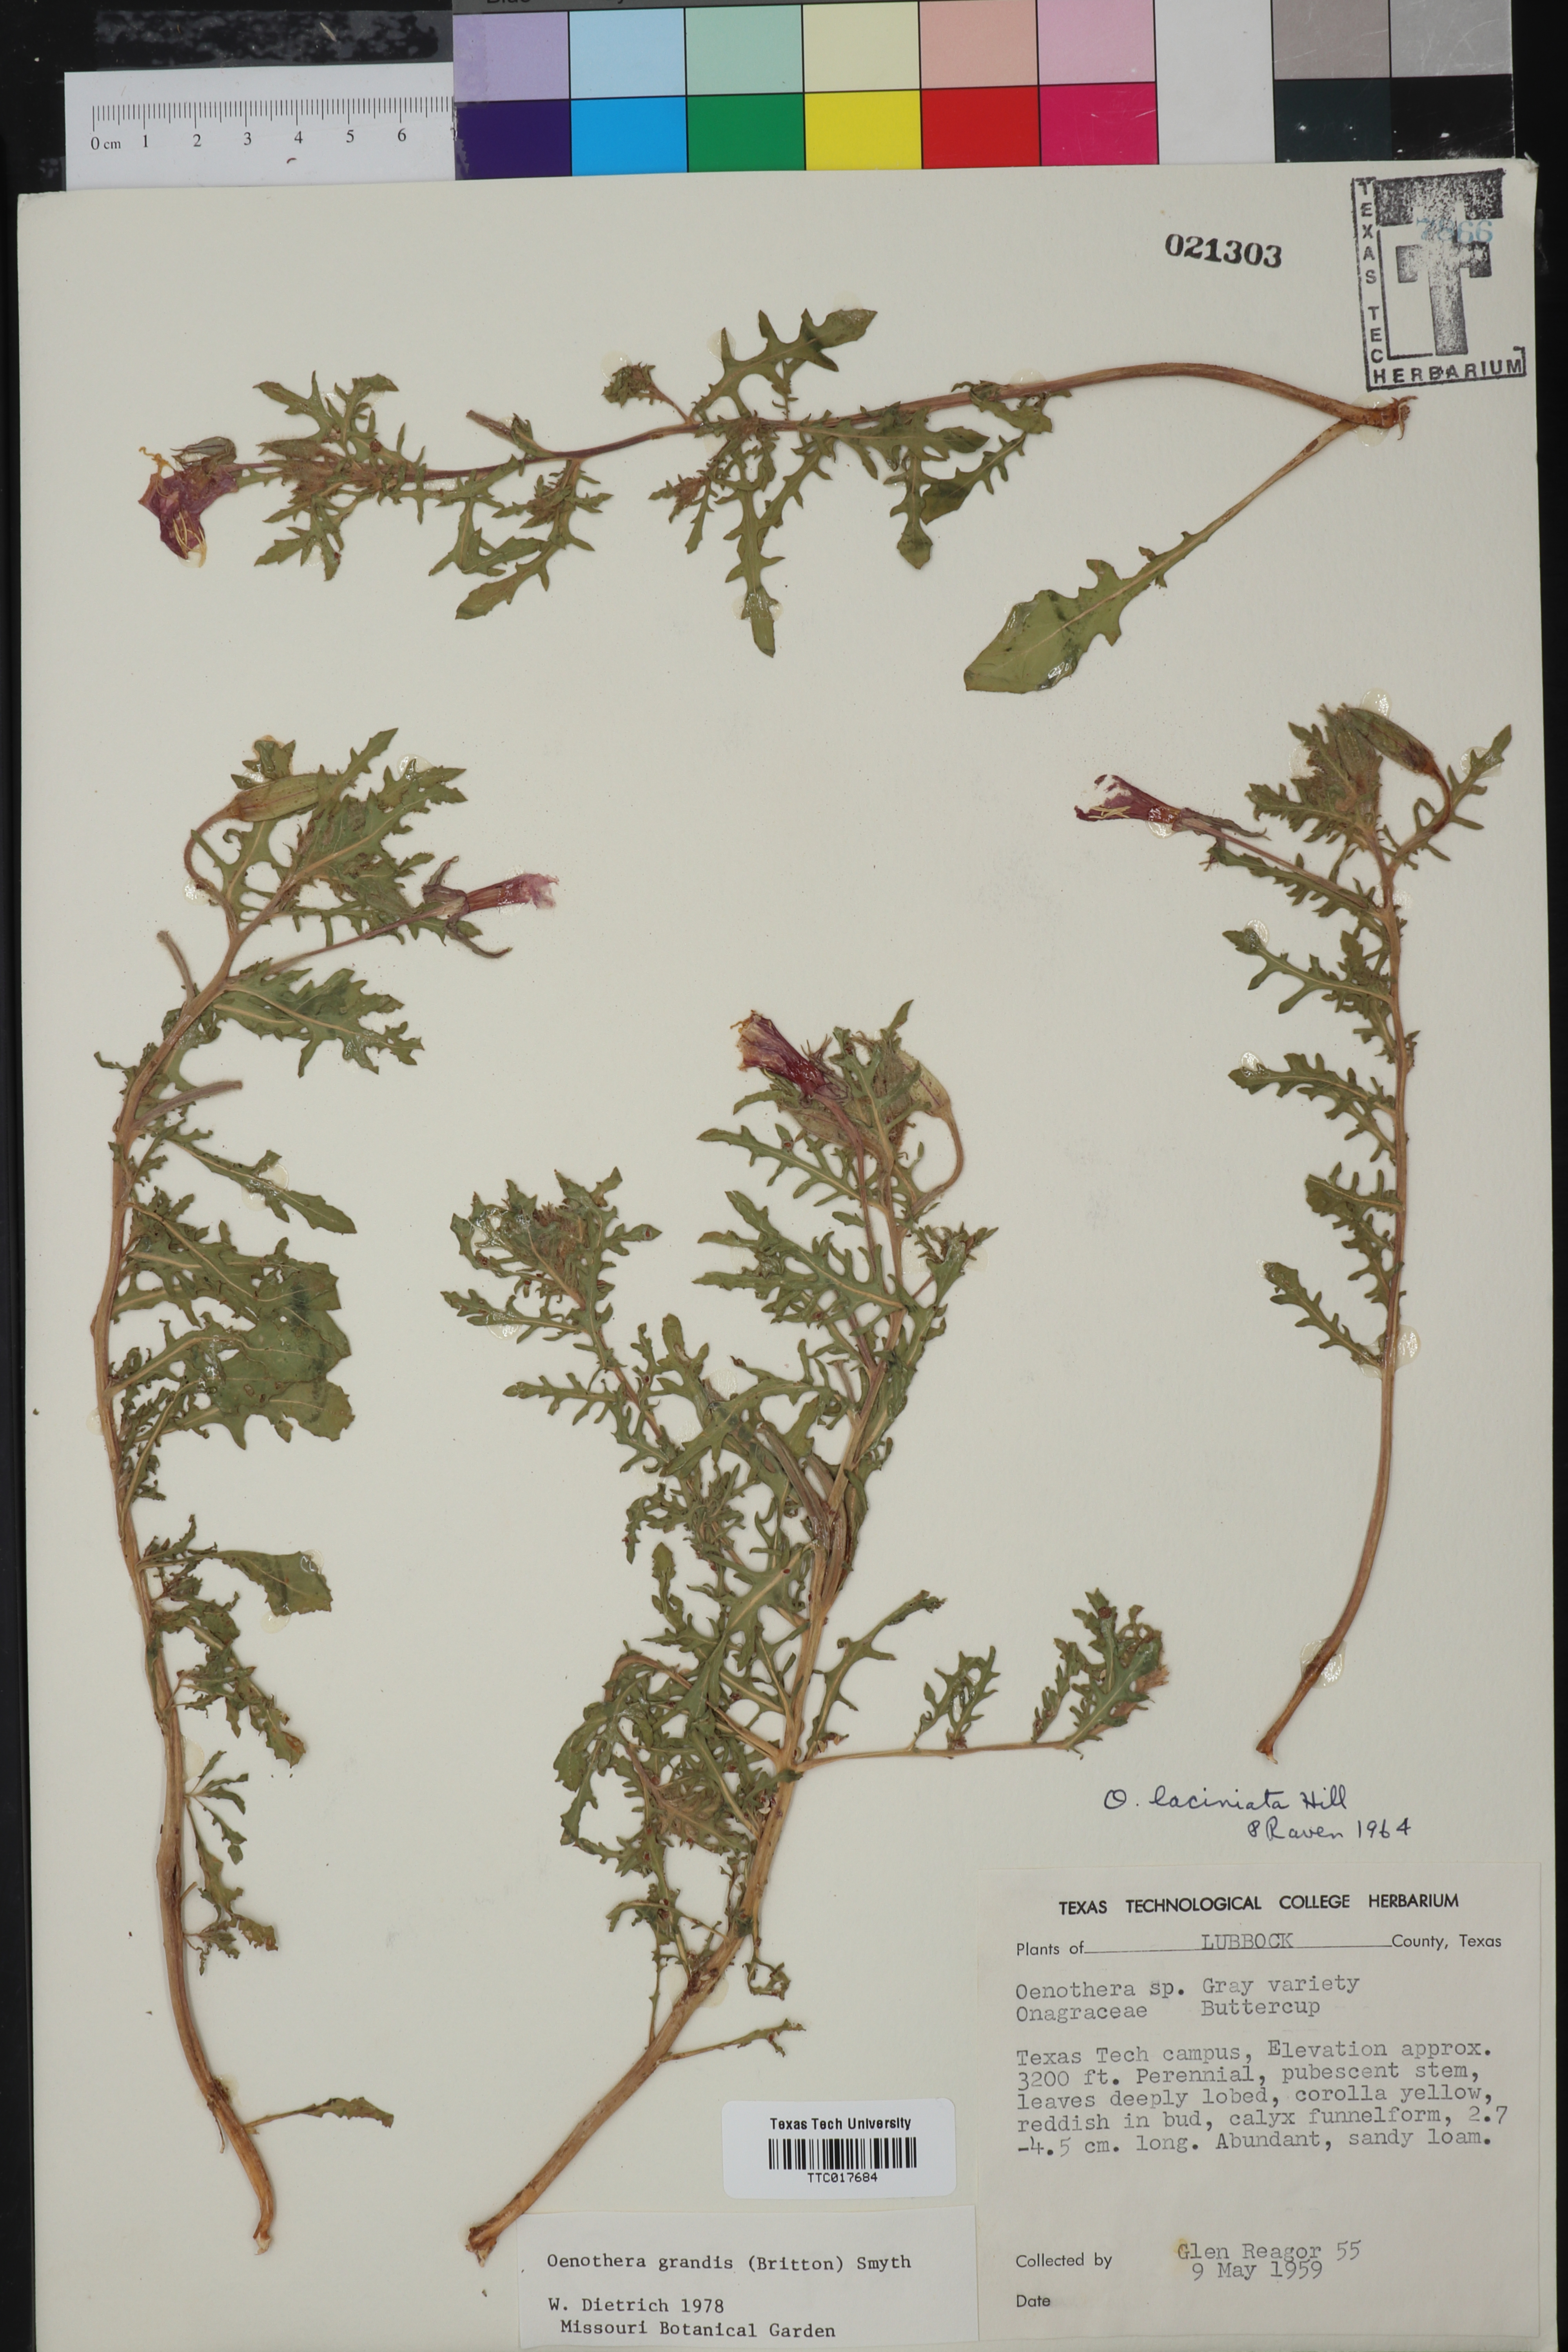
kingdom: Plantae
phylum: Tracheophyta
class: Magnoliopsida
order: Myrtales
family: Onagraceae
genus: Oenothera
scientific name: Oenothera grandis
